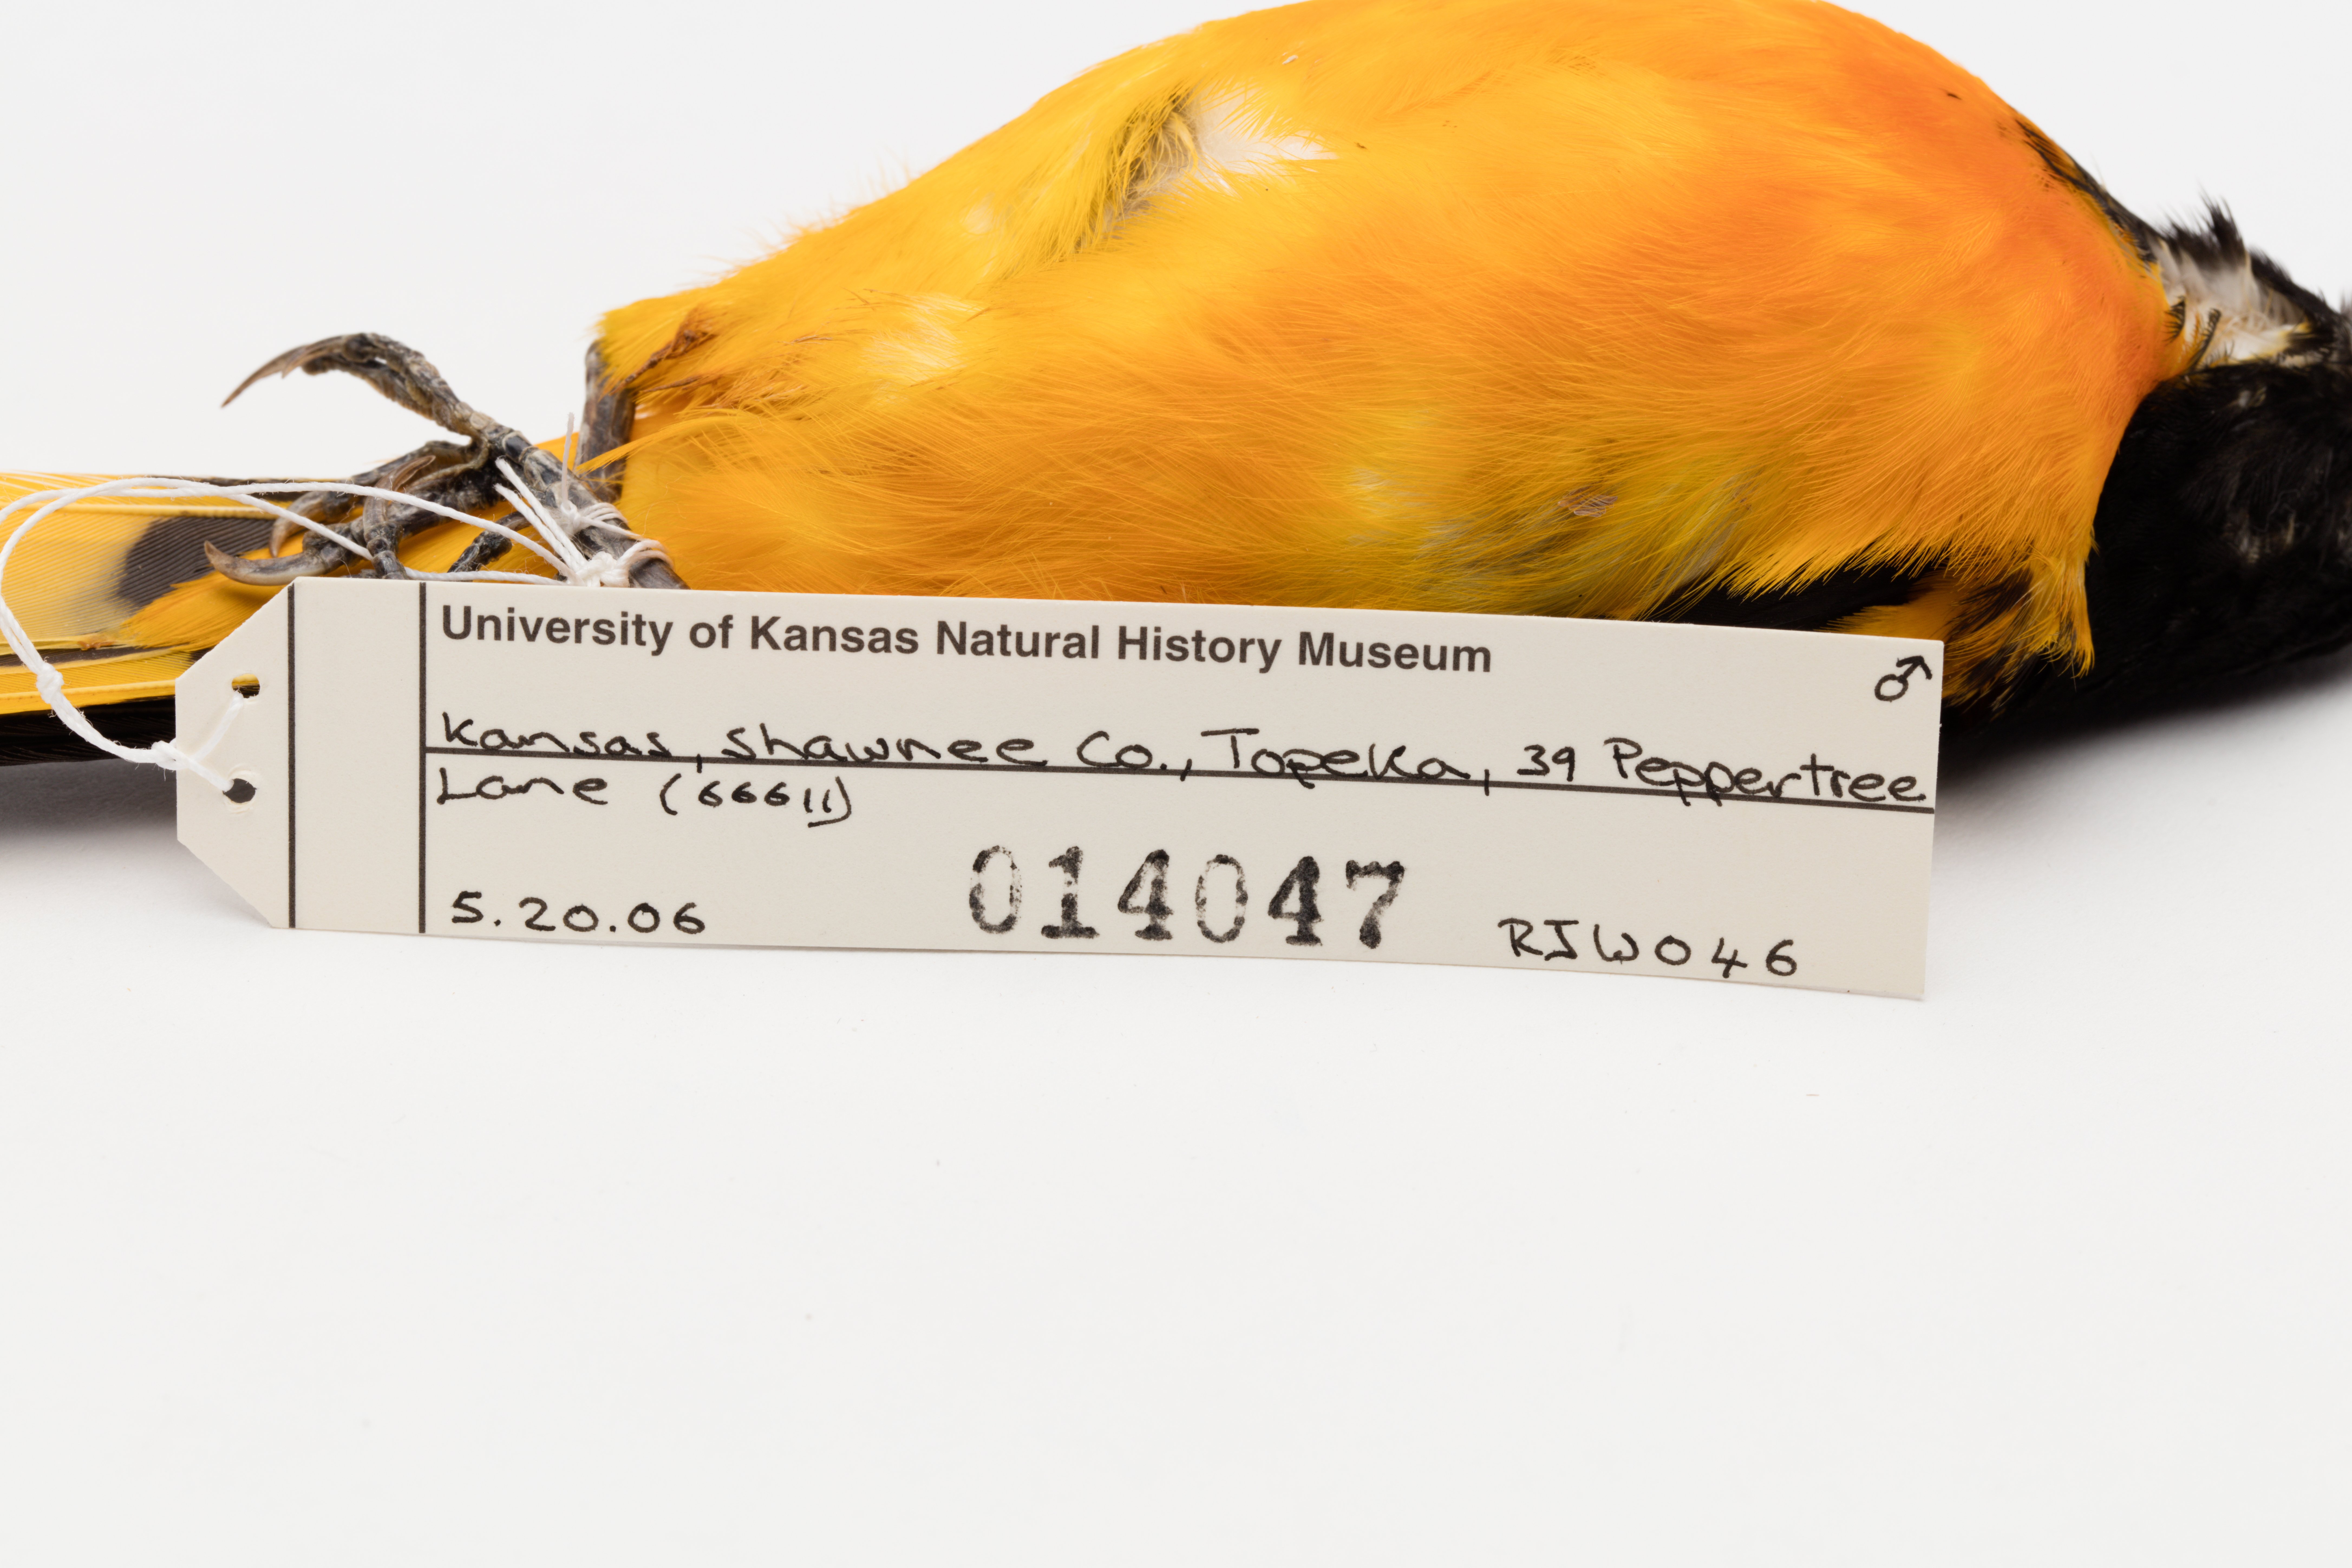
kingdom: Animalia
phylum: Chordata
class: Aves
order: Passeriformes
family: Icteridae
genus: Icterus
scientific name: Icterus galbula
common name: Baltimore oriole
